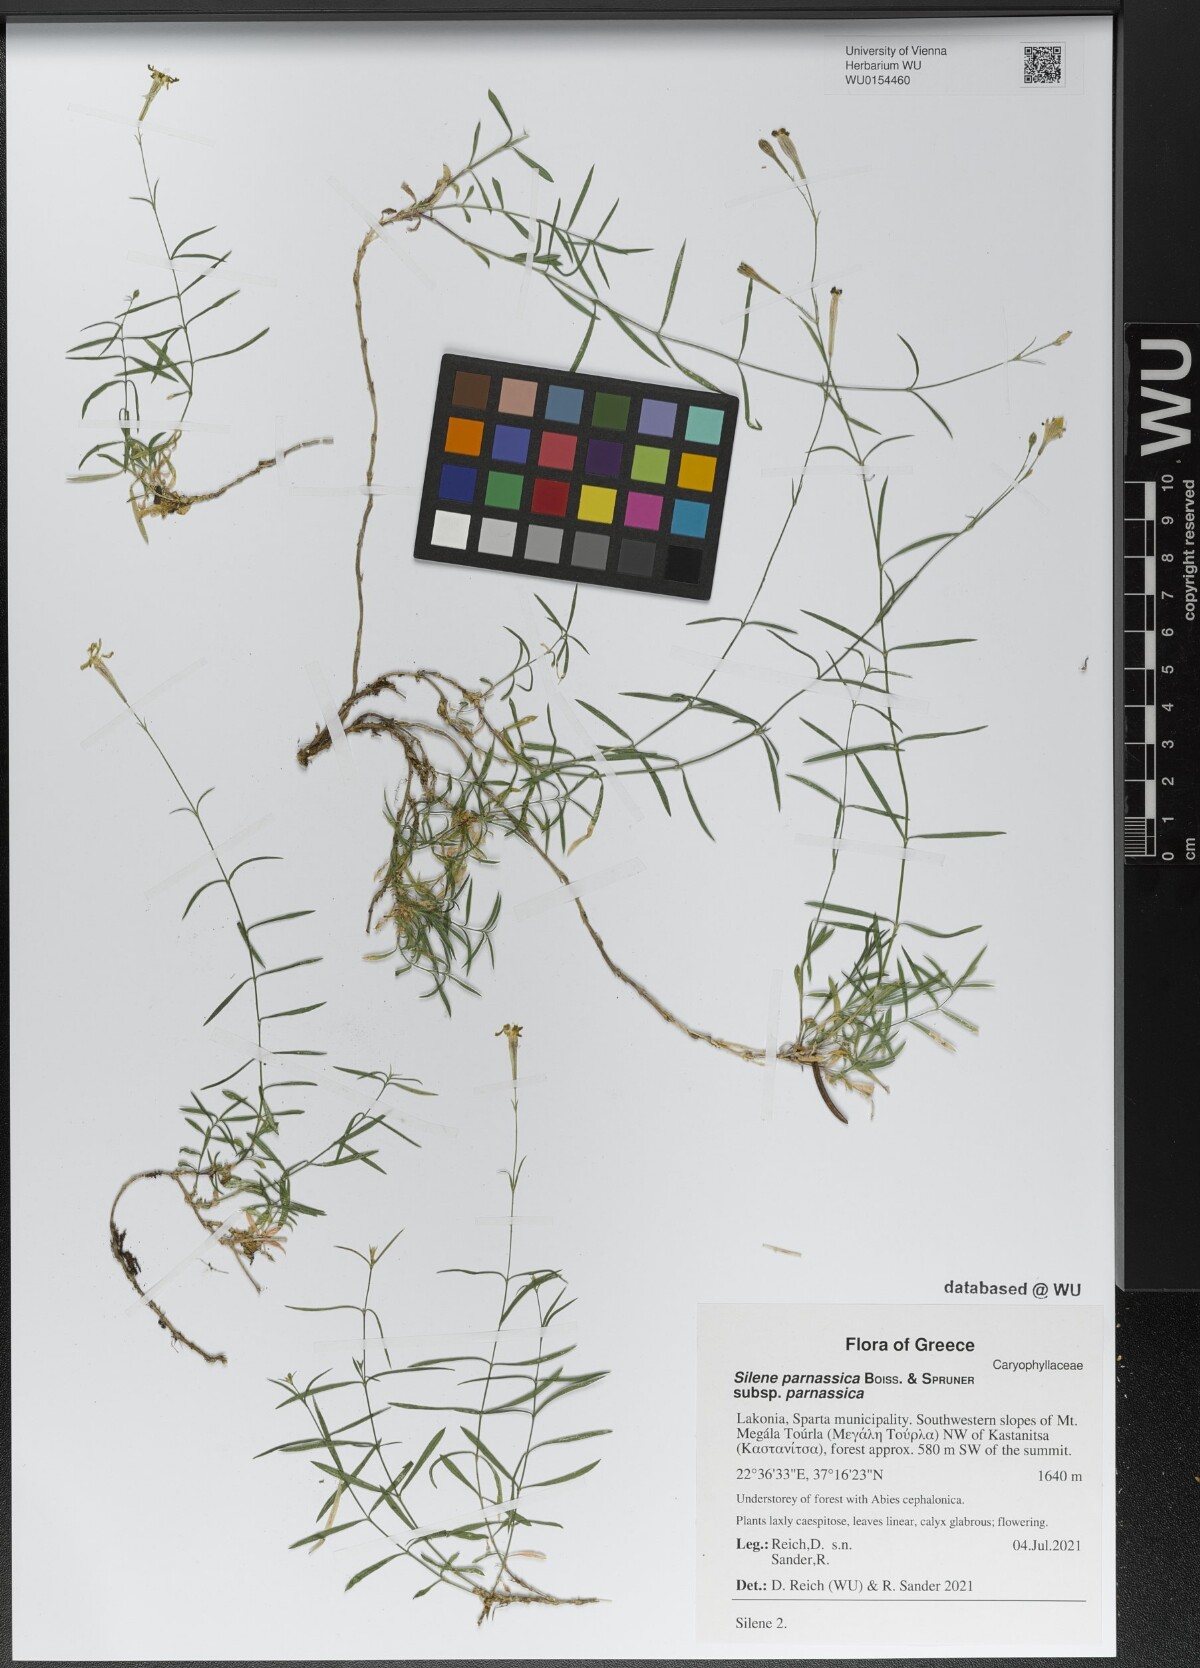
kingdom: Plantae
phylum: Tracheophyta
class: Magnoliopsida
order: Caryophyllales
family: Caryophyllaceae
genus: Silene
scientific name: Silene parnassica
